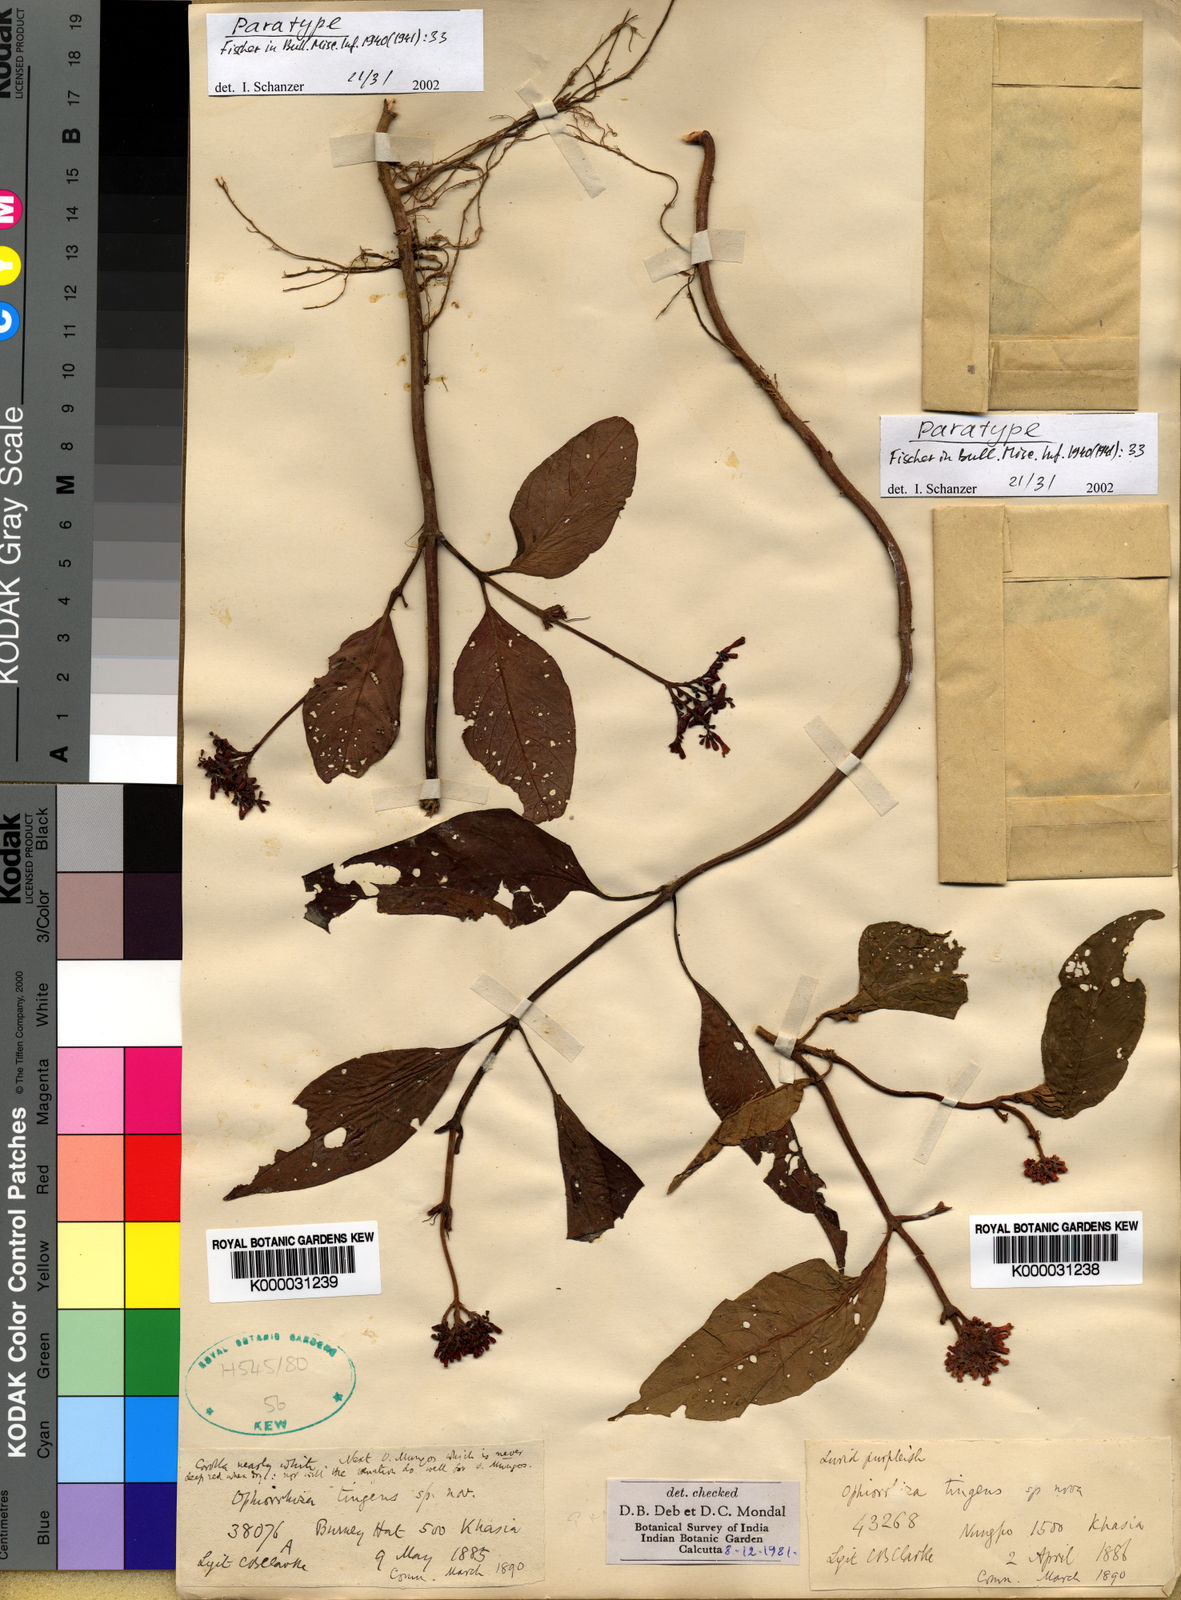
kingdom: Plantae
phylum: Tracheophyta
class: Magnoliopsida
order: Gentianales
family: Rubiaceae
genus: Ophiorrhiza
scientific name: Ophiorrhiza
